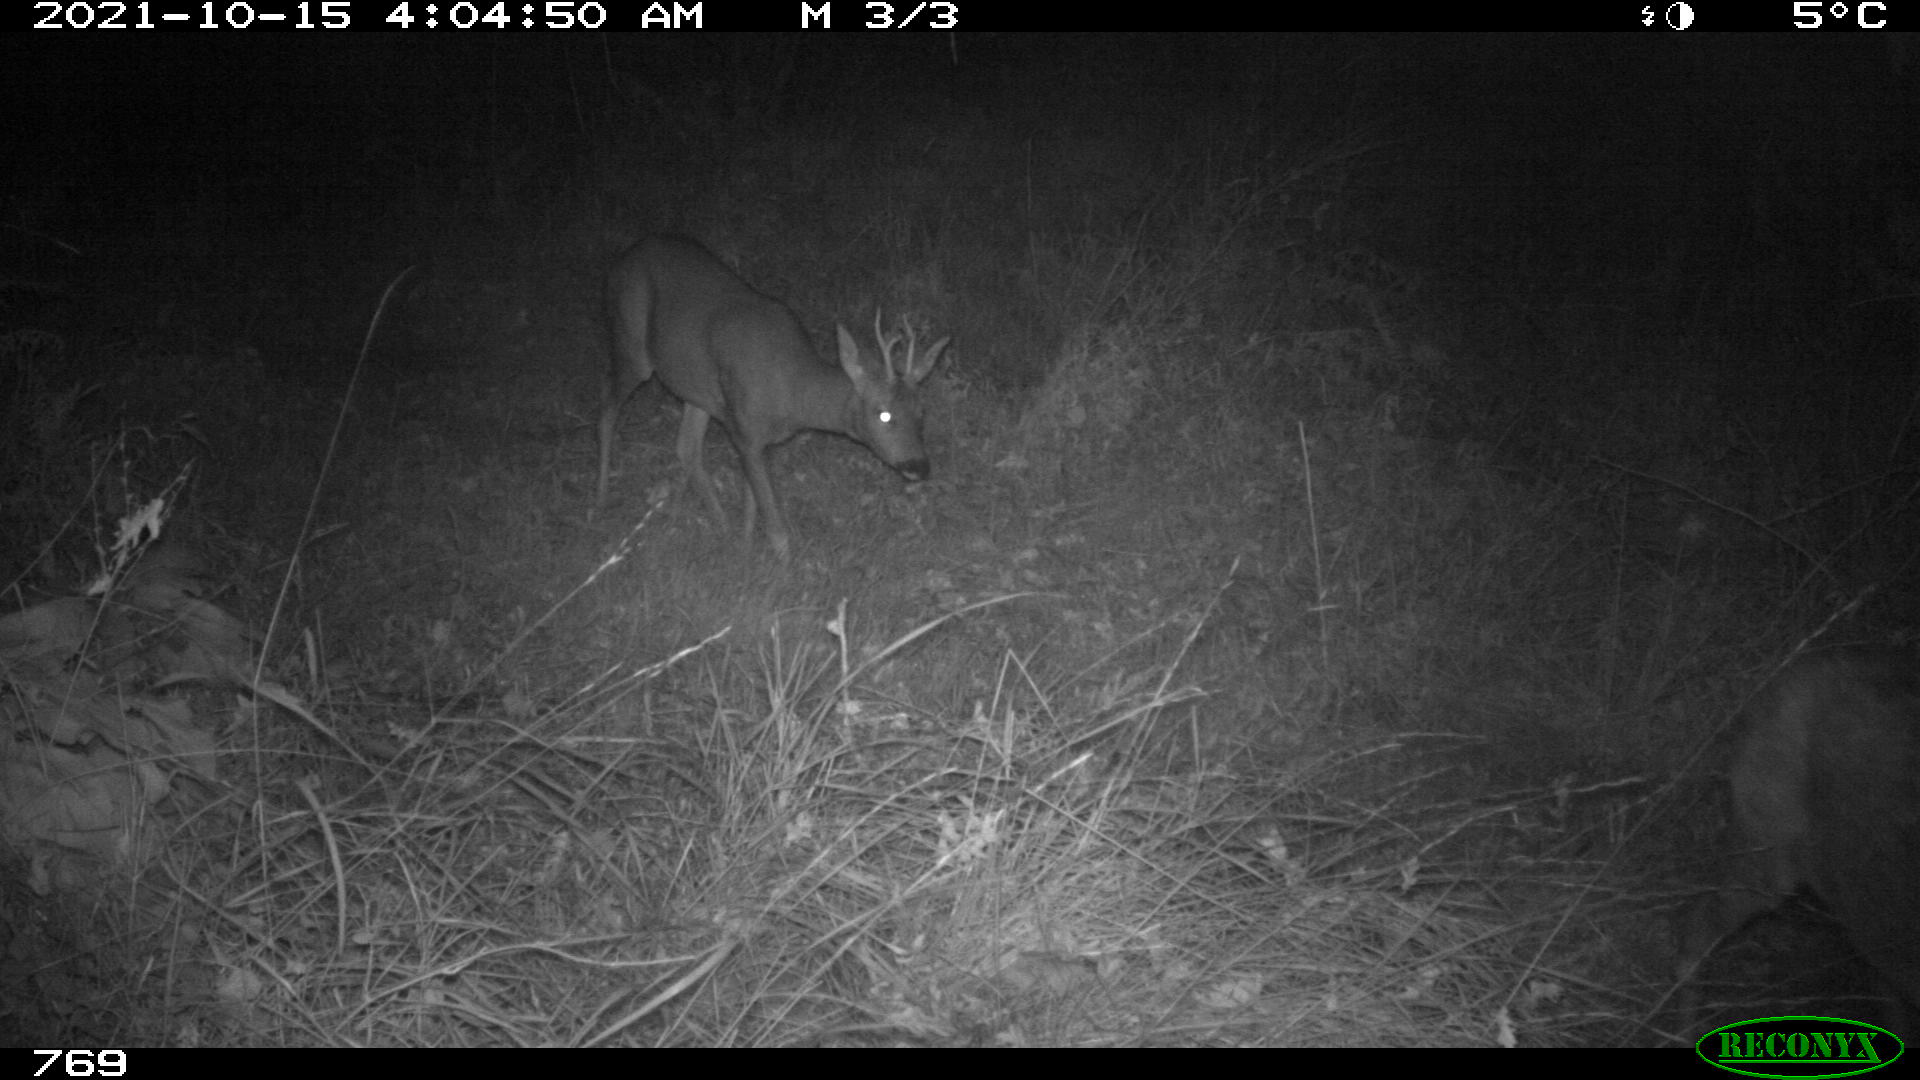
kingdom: Animalia
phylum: Chordata
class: Mammalia
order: Artiodactyla
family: Cervidae
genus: Capreolus
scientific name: Capreolus capreolus
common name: Western roe deer
